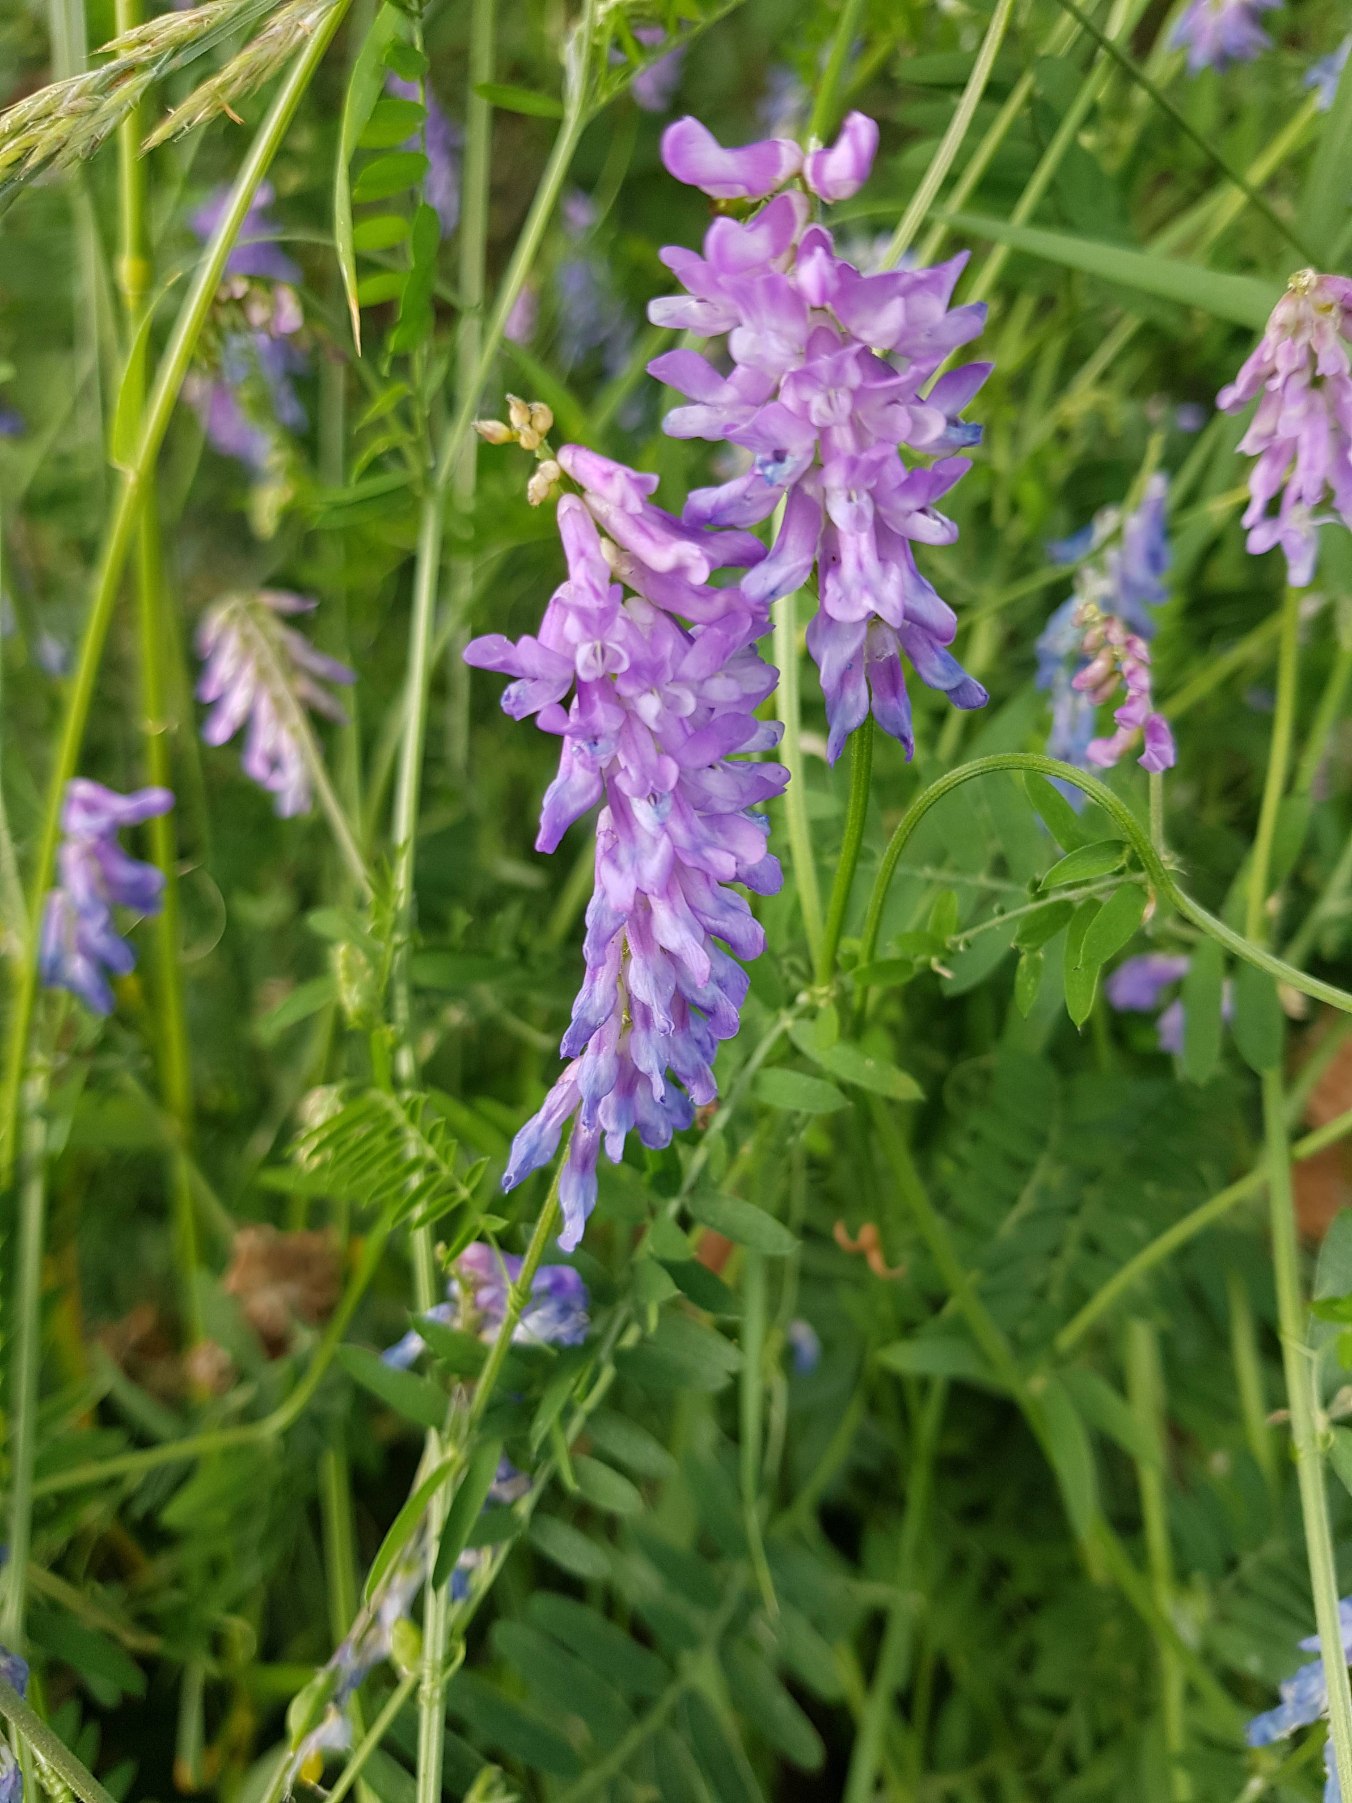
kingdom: Plantae
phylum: Tracheophyta
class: Magnoliopsida
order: Fabales
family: Fabaceae
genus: Vicia
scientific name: Vicia cracca
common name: Muse-vikke
